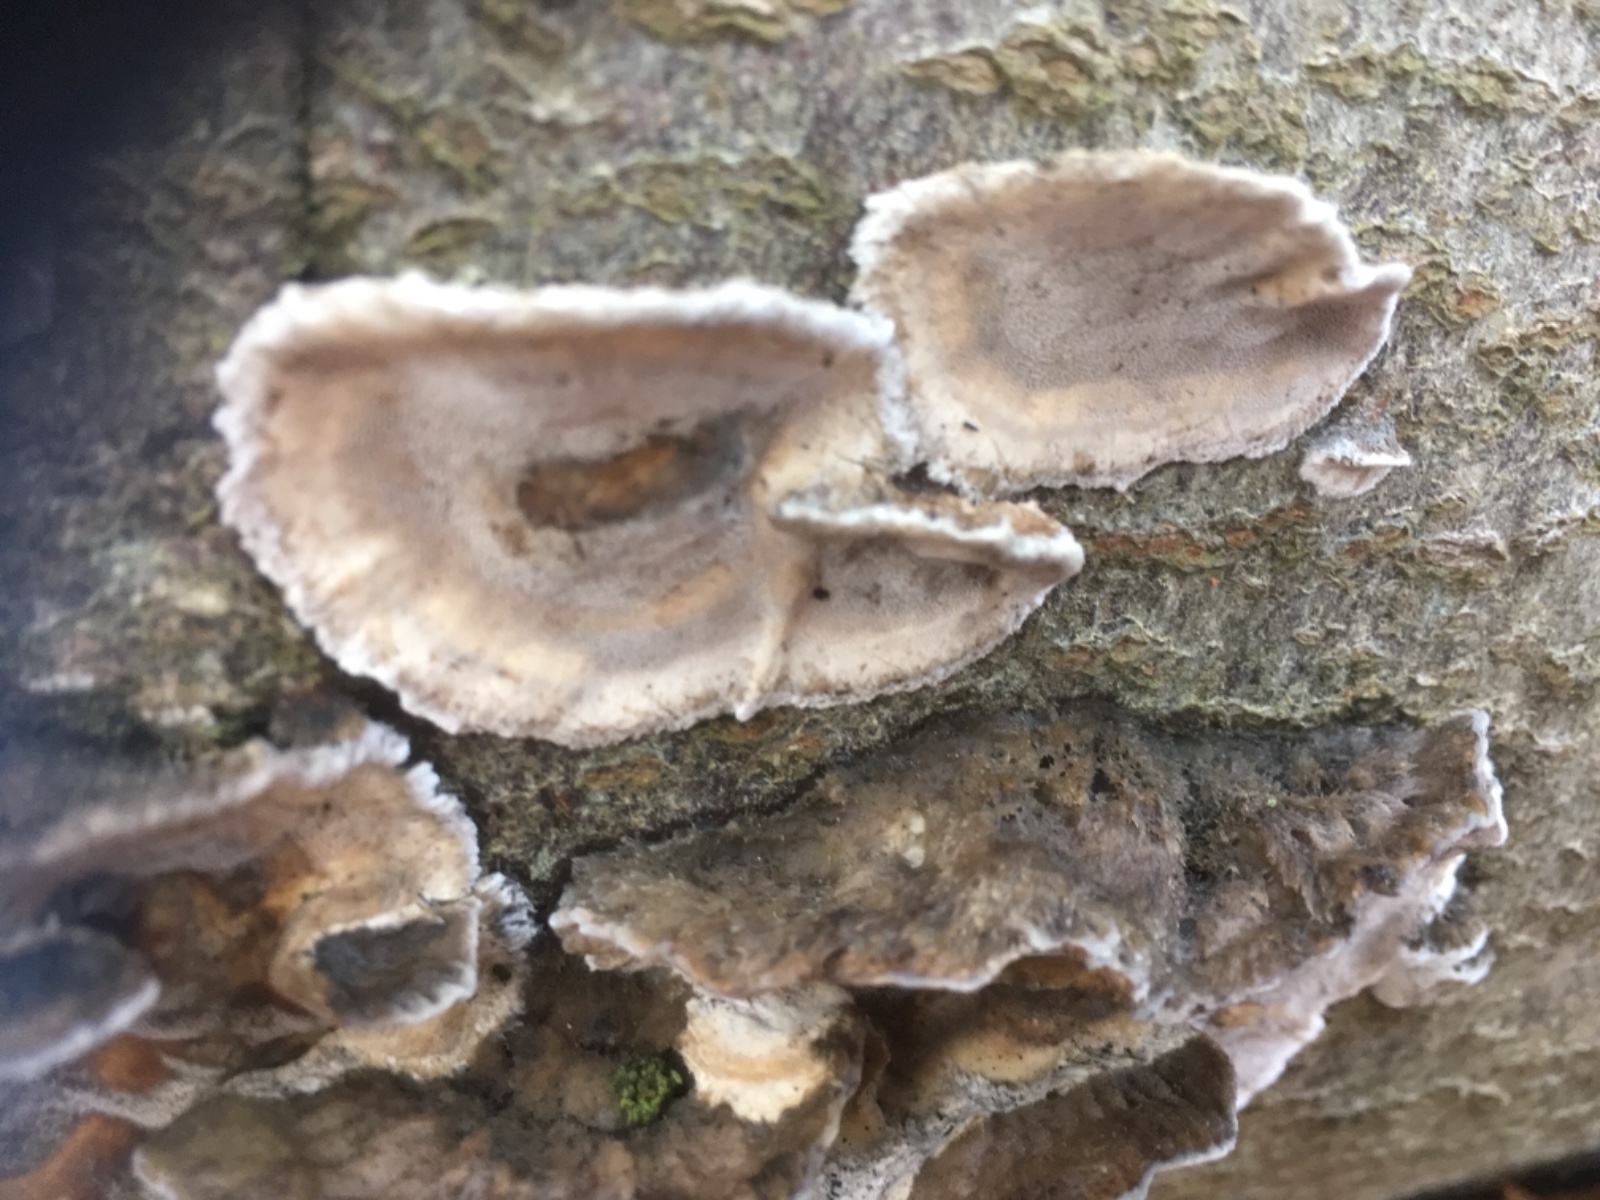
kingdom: Fungi
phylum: Basidiomycota
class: Agaricomycetes
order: Russulales
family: Stereaceae
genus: Stereum
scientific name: Stereum hirsutum
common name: håret lædersvamp
